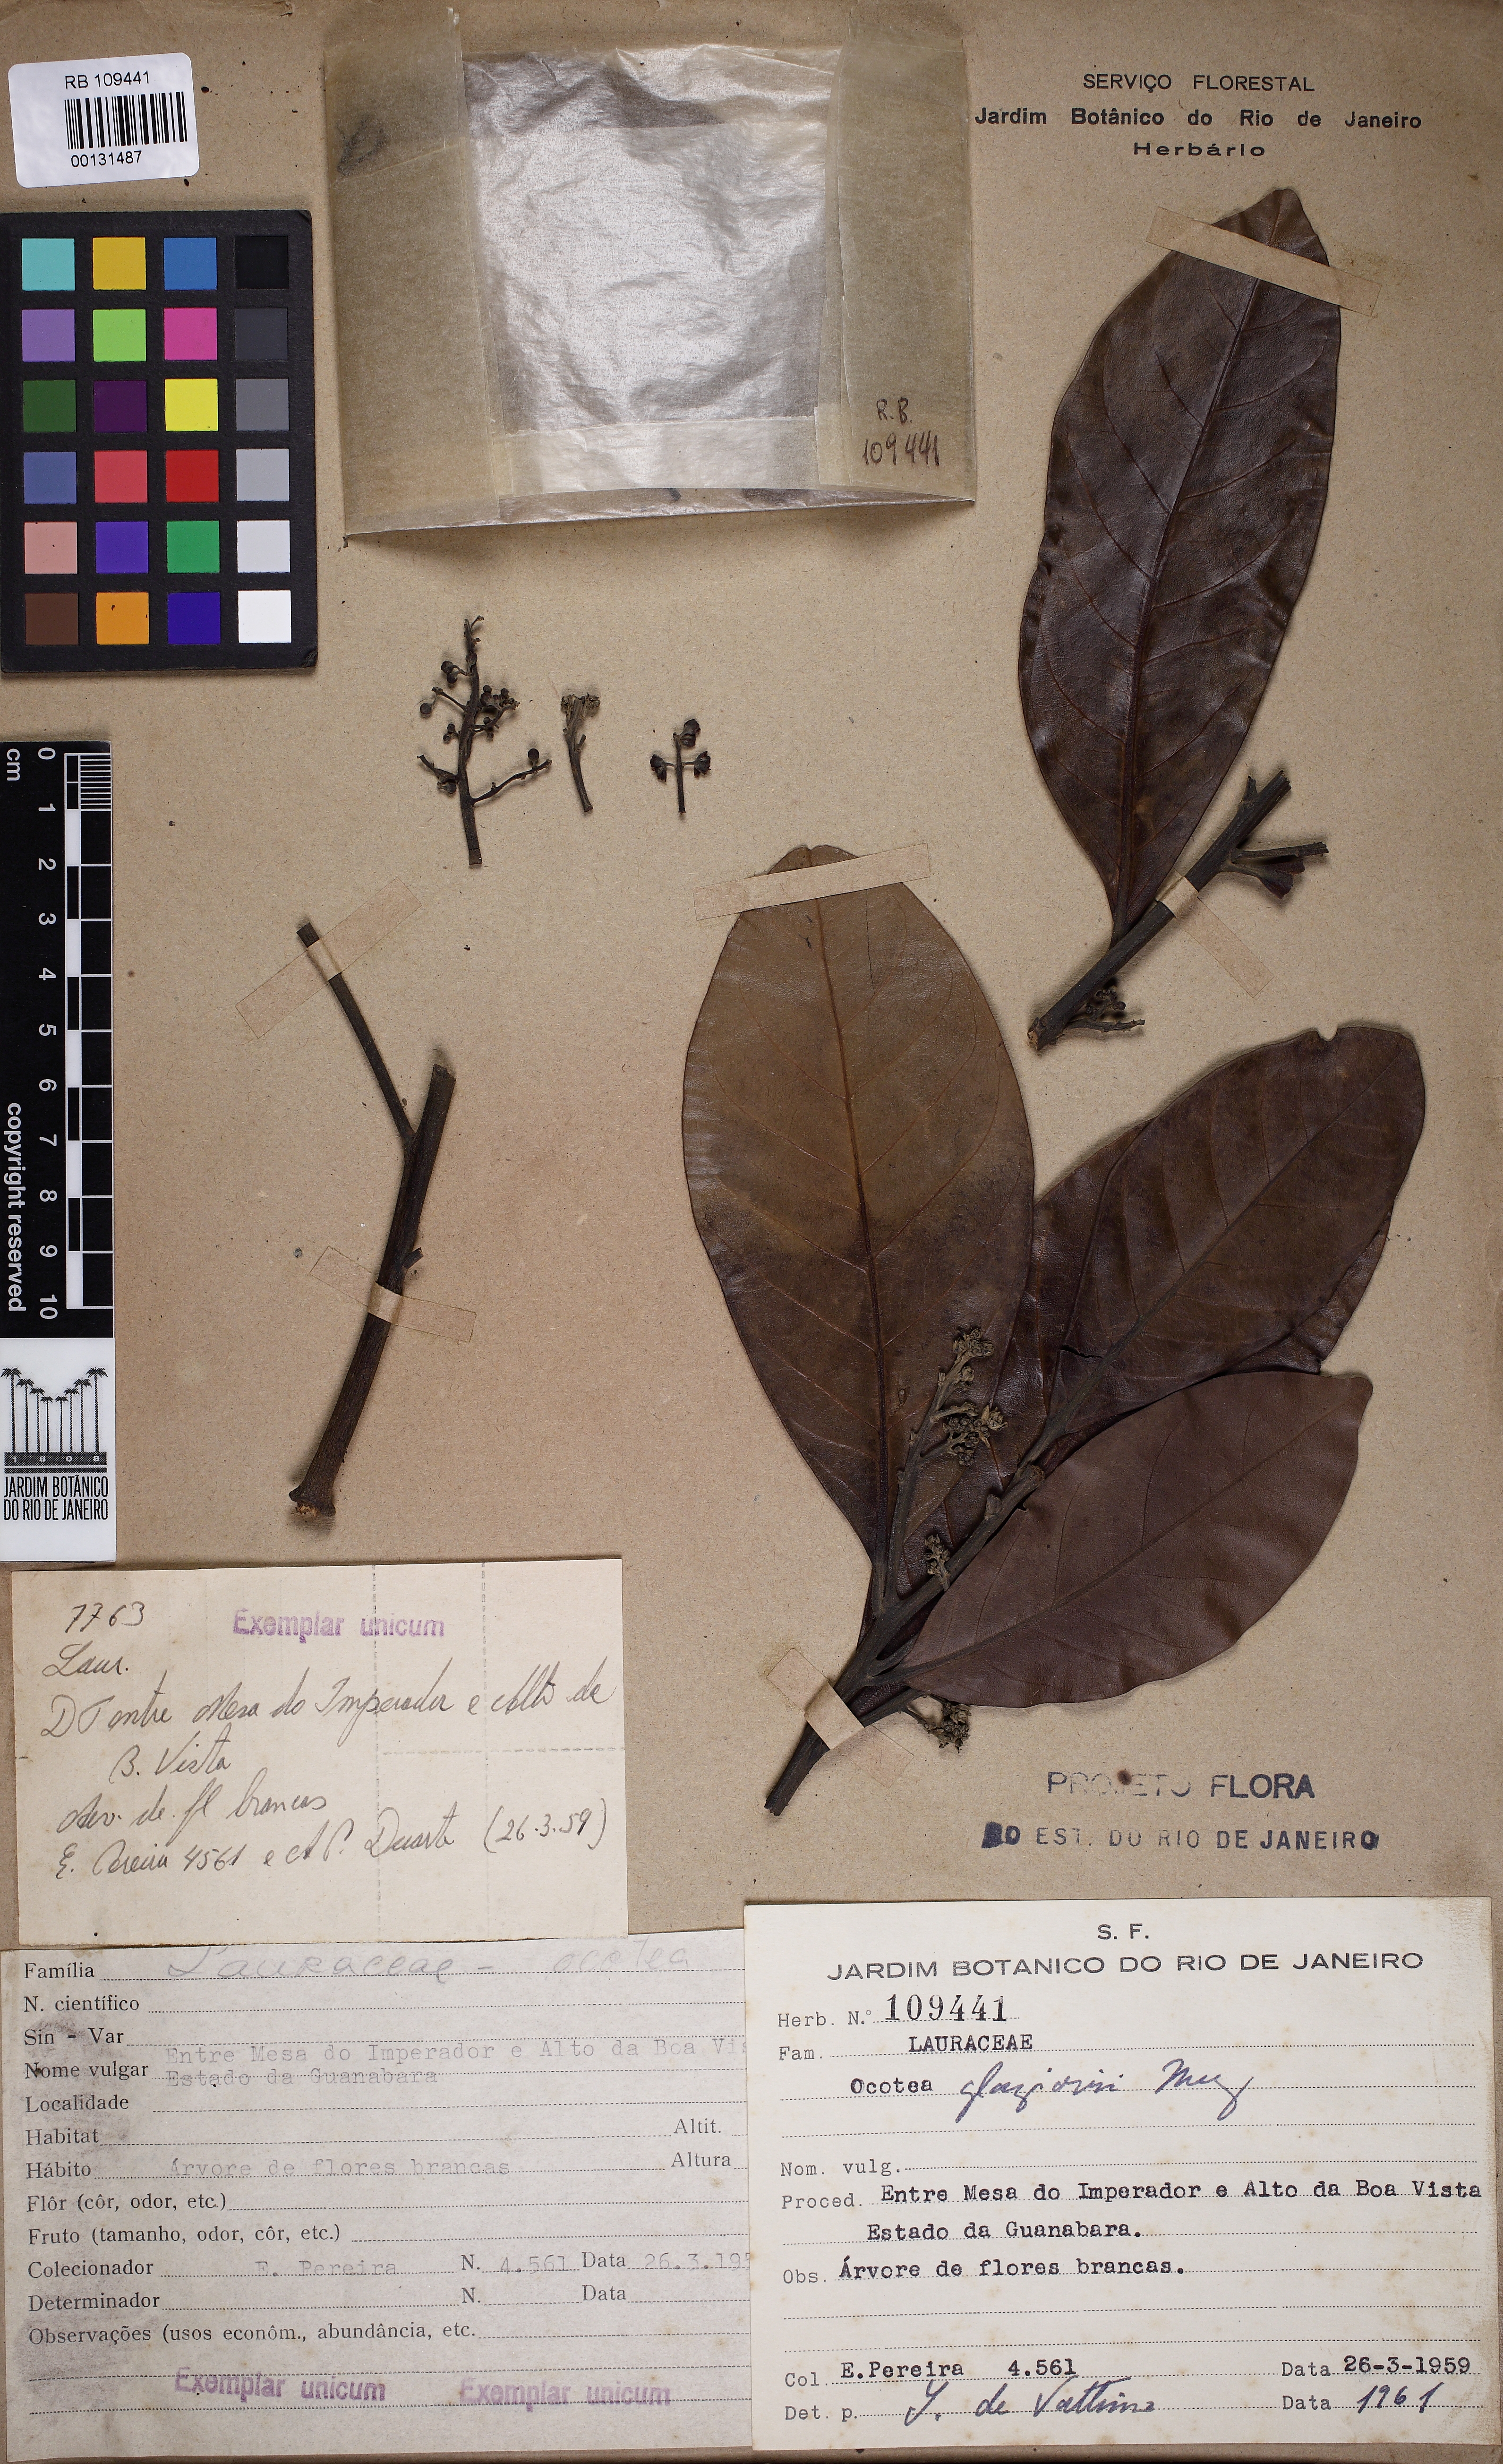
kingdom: Plantae
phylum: Tracheophyta
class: Magnoliopsida
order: Laurales
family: Lauraceae
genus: Ocotea
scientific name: Ocotea glaziovii
